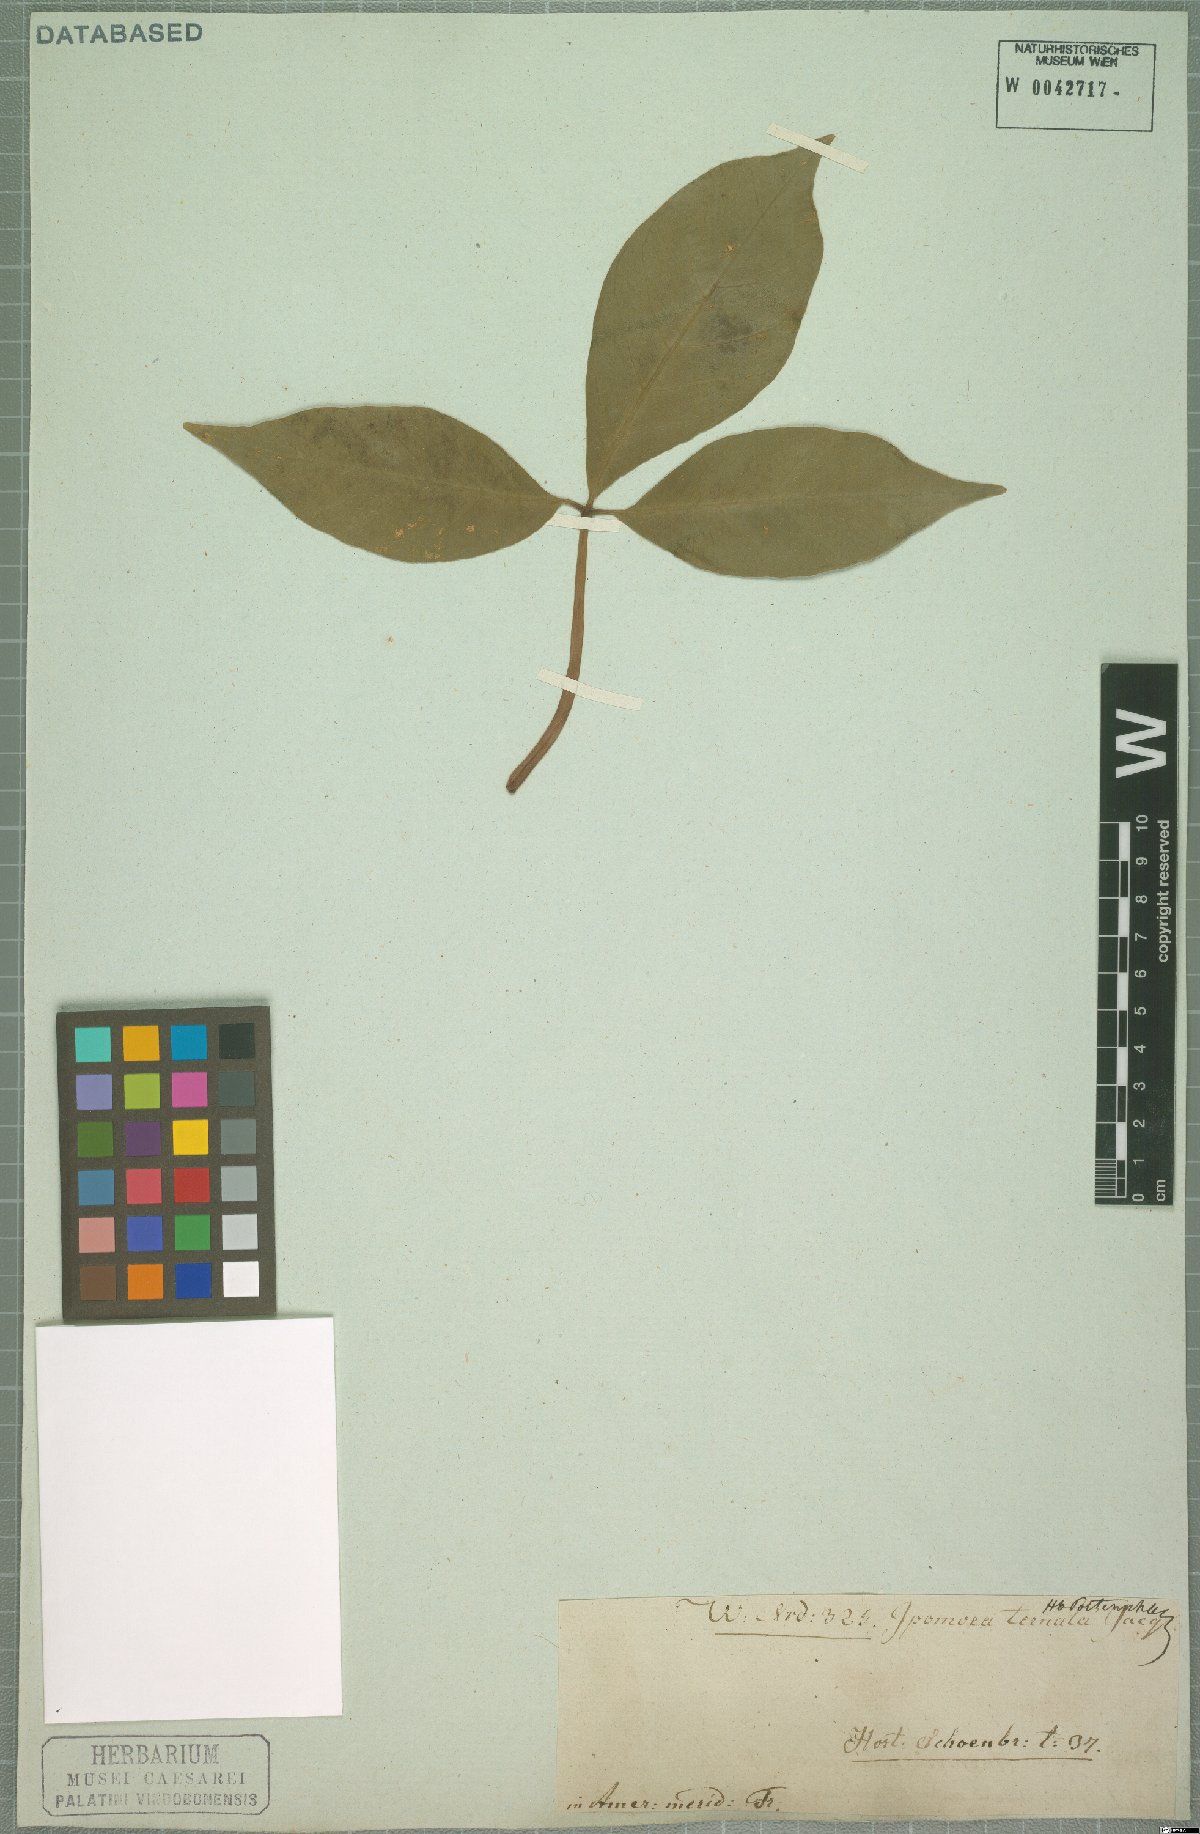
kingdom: Plantae
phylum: Tracheophyta
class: Magnoliopsida
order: Solanales
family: Convolvulaceae
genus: Ipomoea
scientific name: Ipomoea ternata
